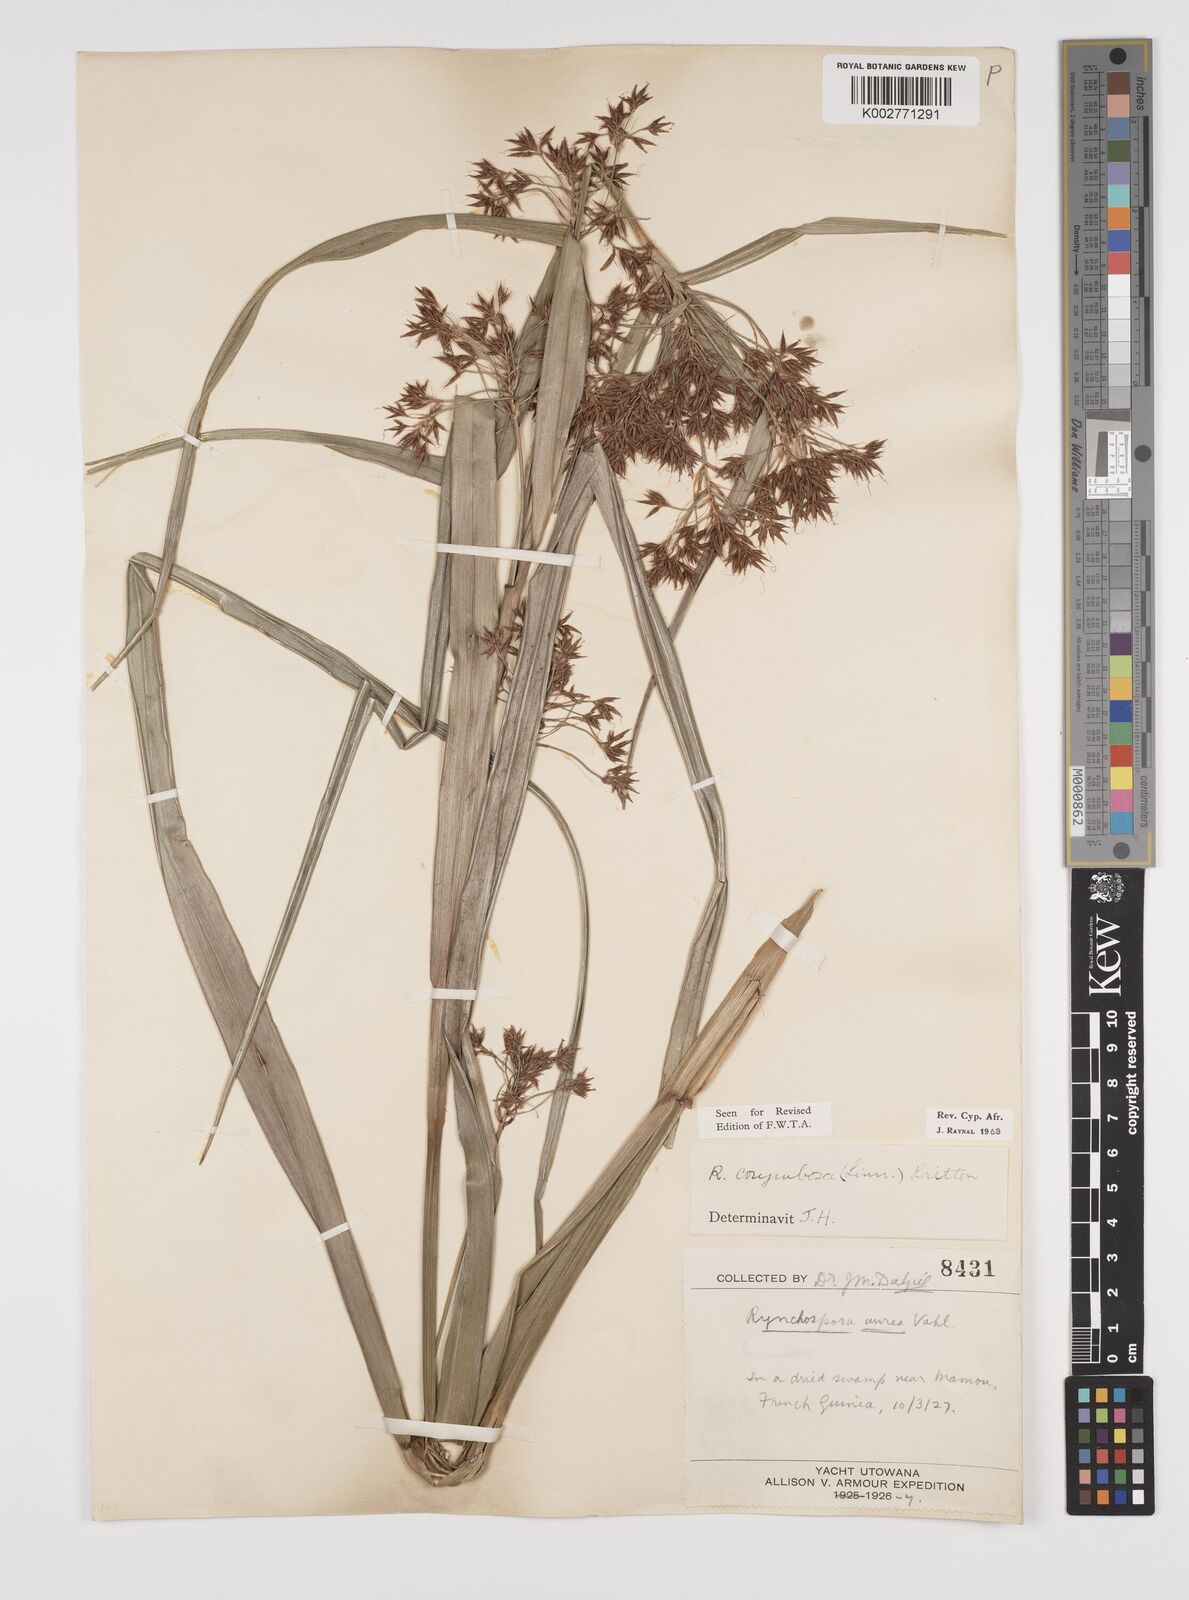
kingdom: Plantae
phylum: Tracheophyta
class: Liliopsida
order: Poales
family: Cyperaceae
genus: Rhynchospora
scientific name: Rhynchospora corymbosa
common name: Golden beak sedge
